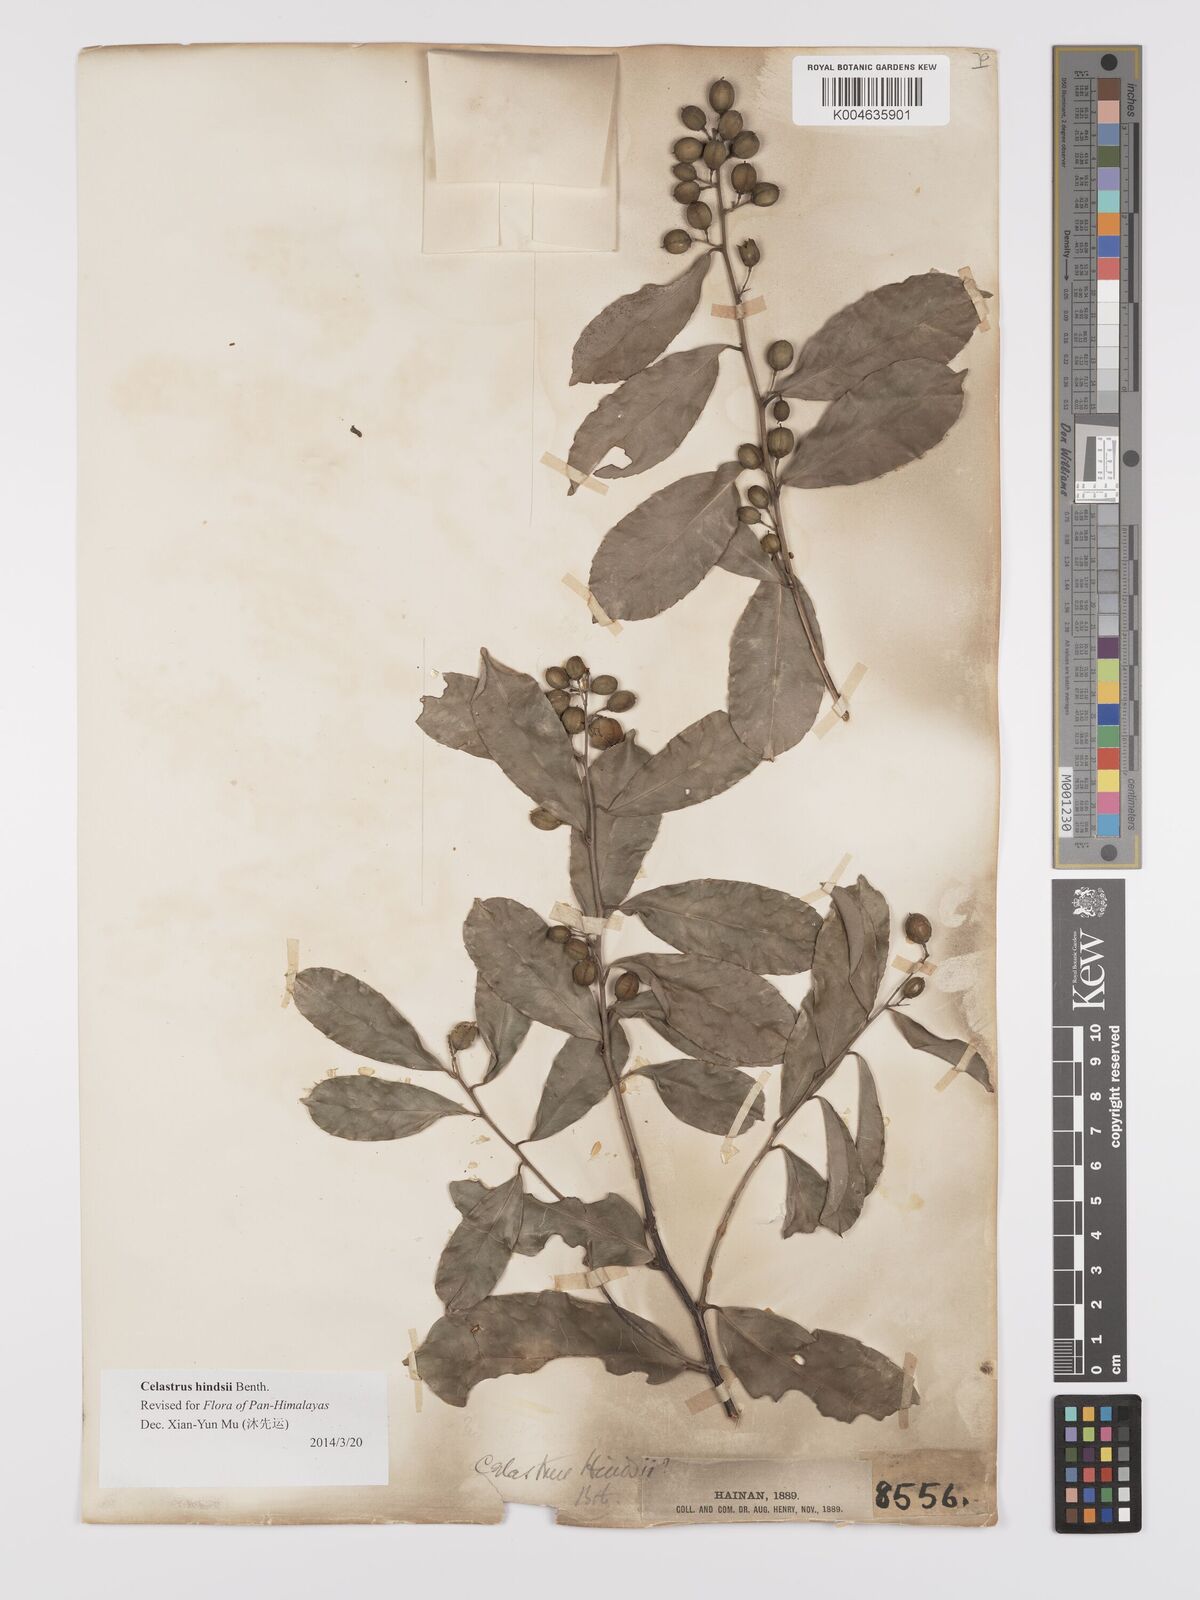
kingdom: Plantae
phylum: Tracheophyta
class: Magnoliopsida
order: Celastrales
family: Celastraceae
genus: Celastrus
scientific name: Celastrus hindsii
